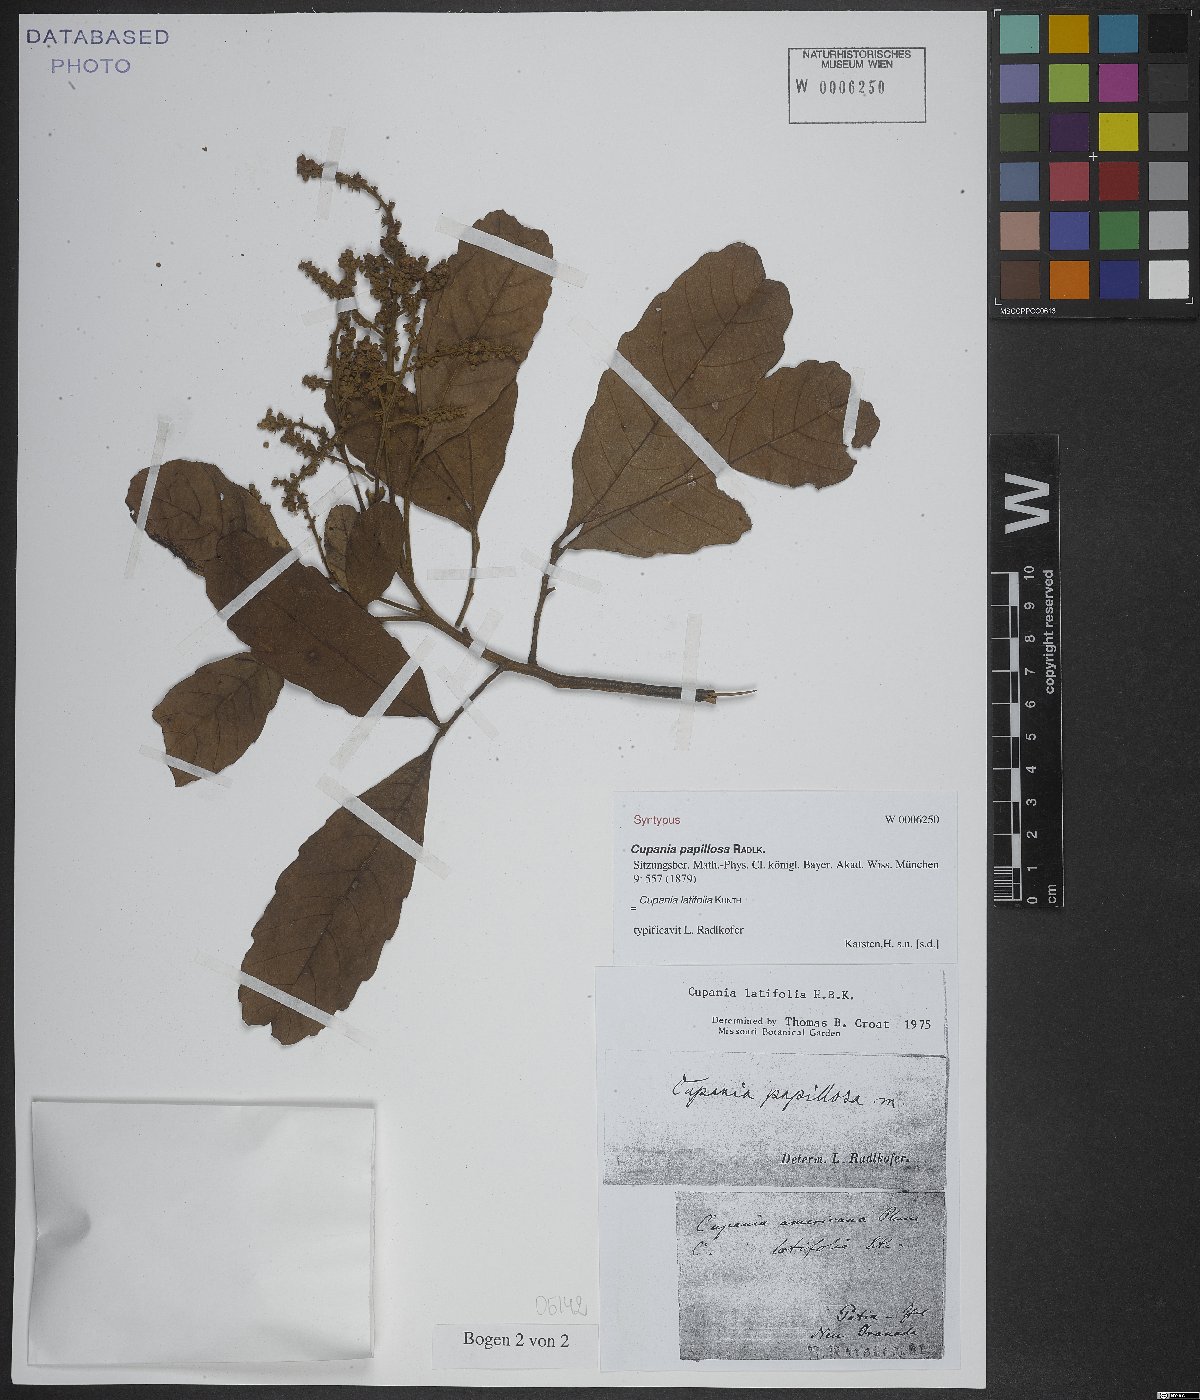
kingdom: Plantae
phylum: Tracheophyta
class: Magnoliopsida
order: Sapindales
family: Sapindaceae
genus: Cupania
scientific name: Cupania latifolia
